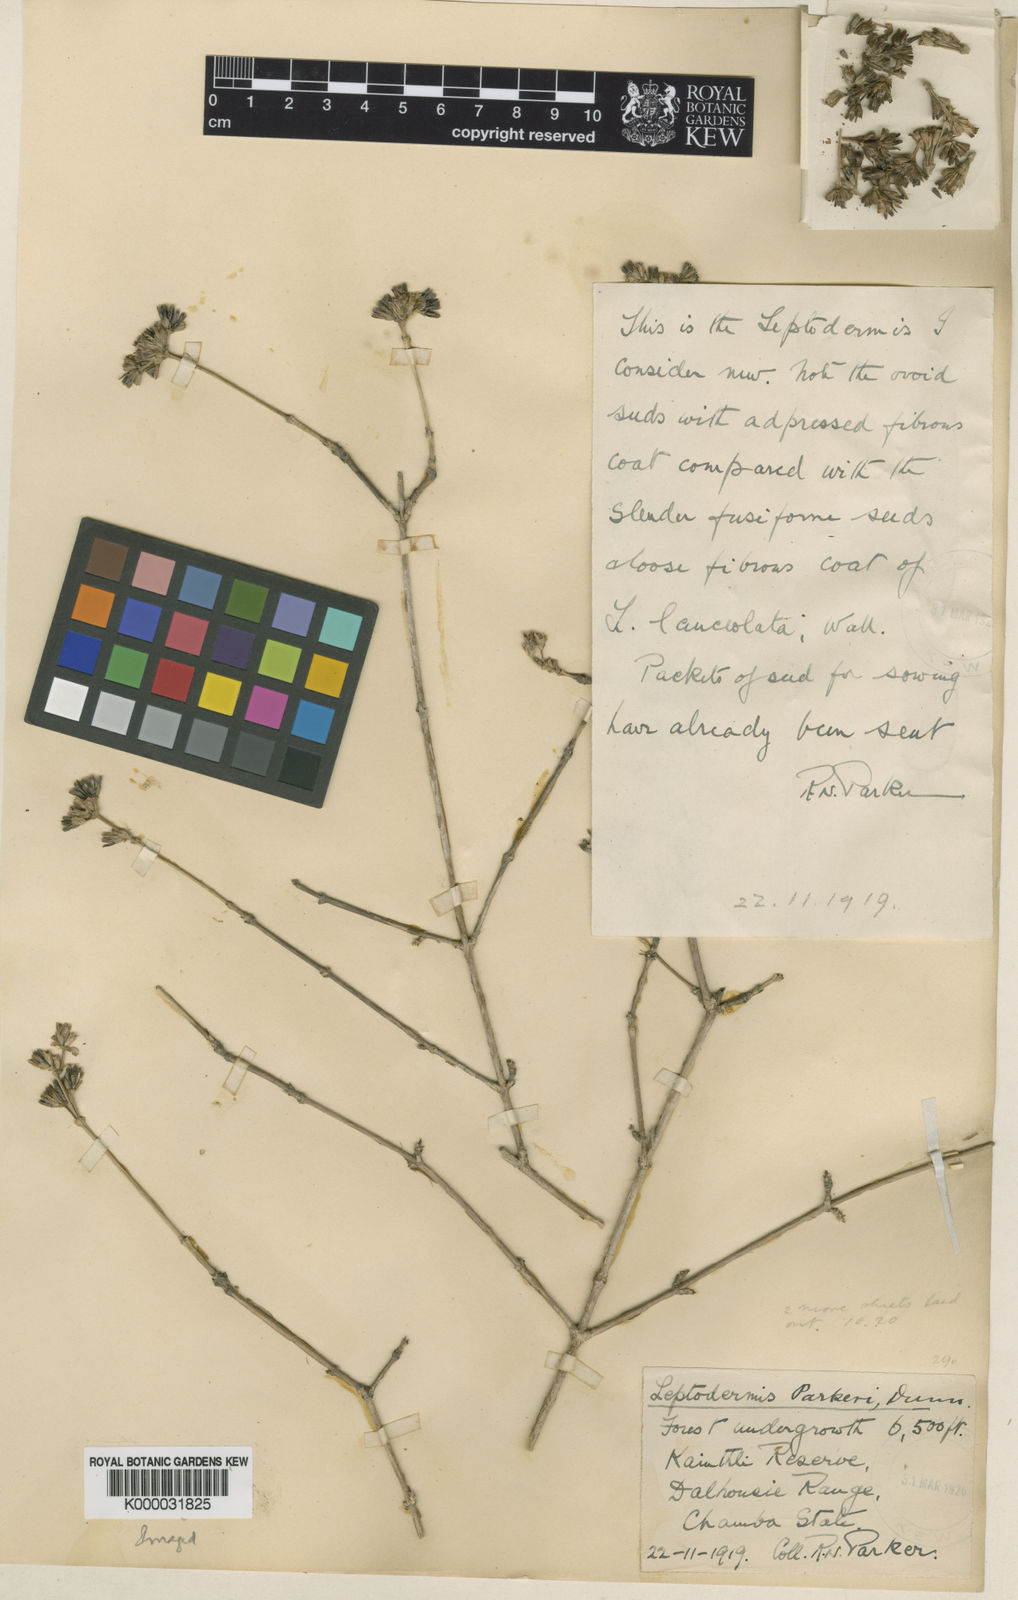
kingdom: Plantae
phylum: Tracheophyta
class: Magnoliopsida
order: Gentianales
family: Rubiaceae
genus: Leptodermis
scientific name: Leptodermis kumaonensis
